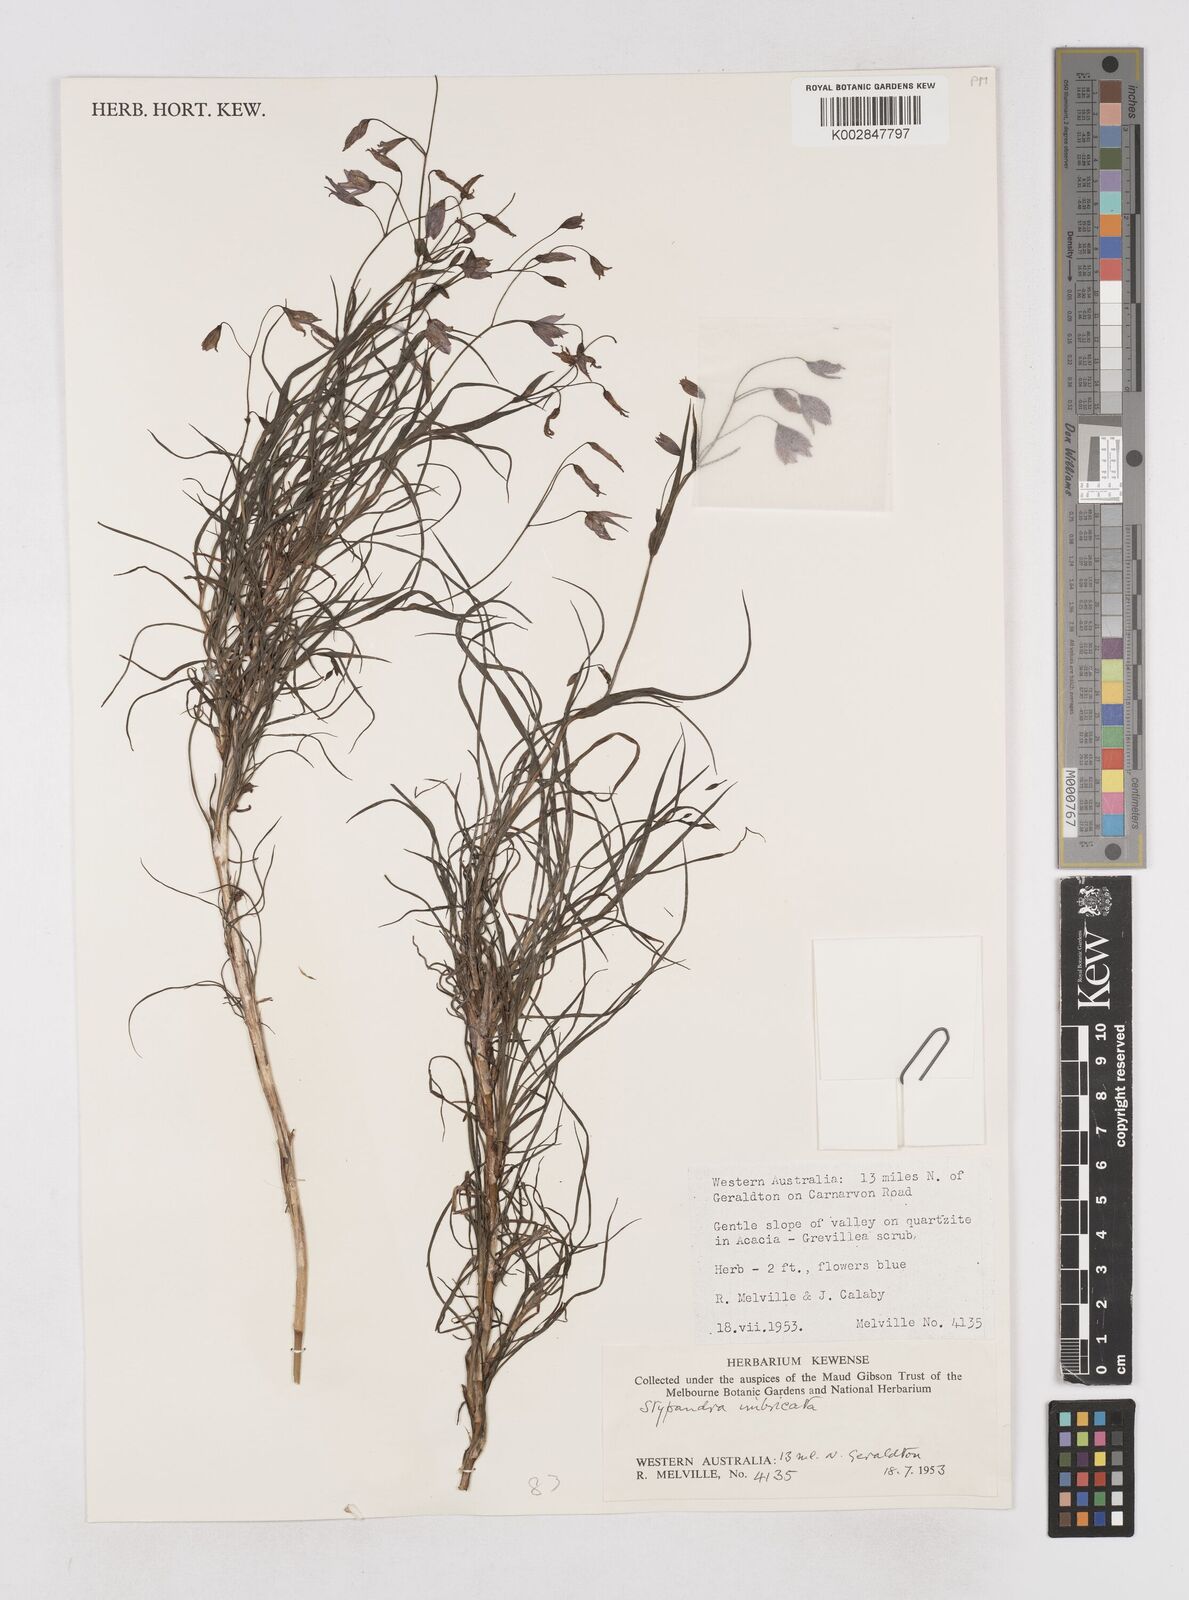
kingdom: Plantae
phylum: Tracheophyta
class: Liliopsida
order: Asparagales
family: Asphodelaceae
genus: Stypandra
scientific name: Stypandra glauca
